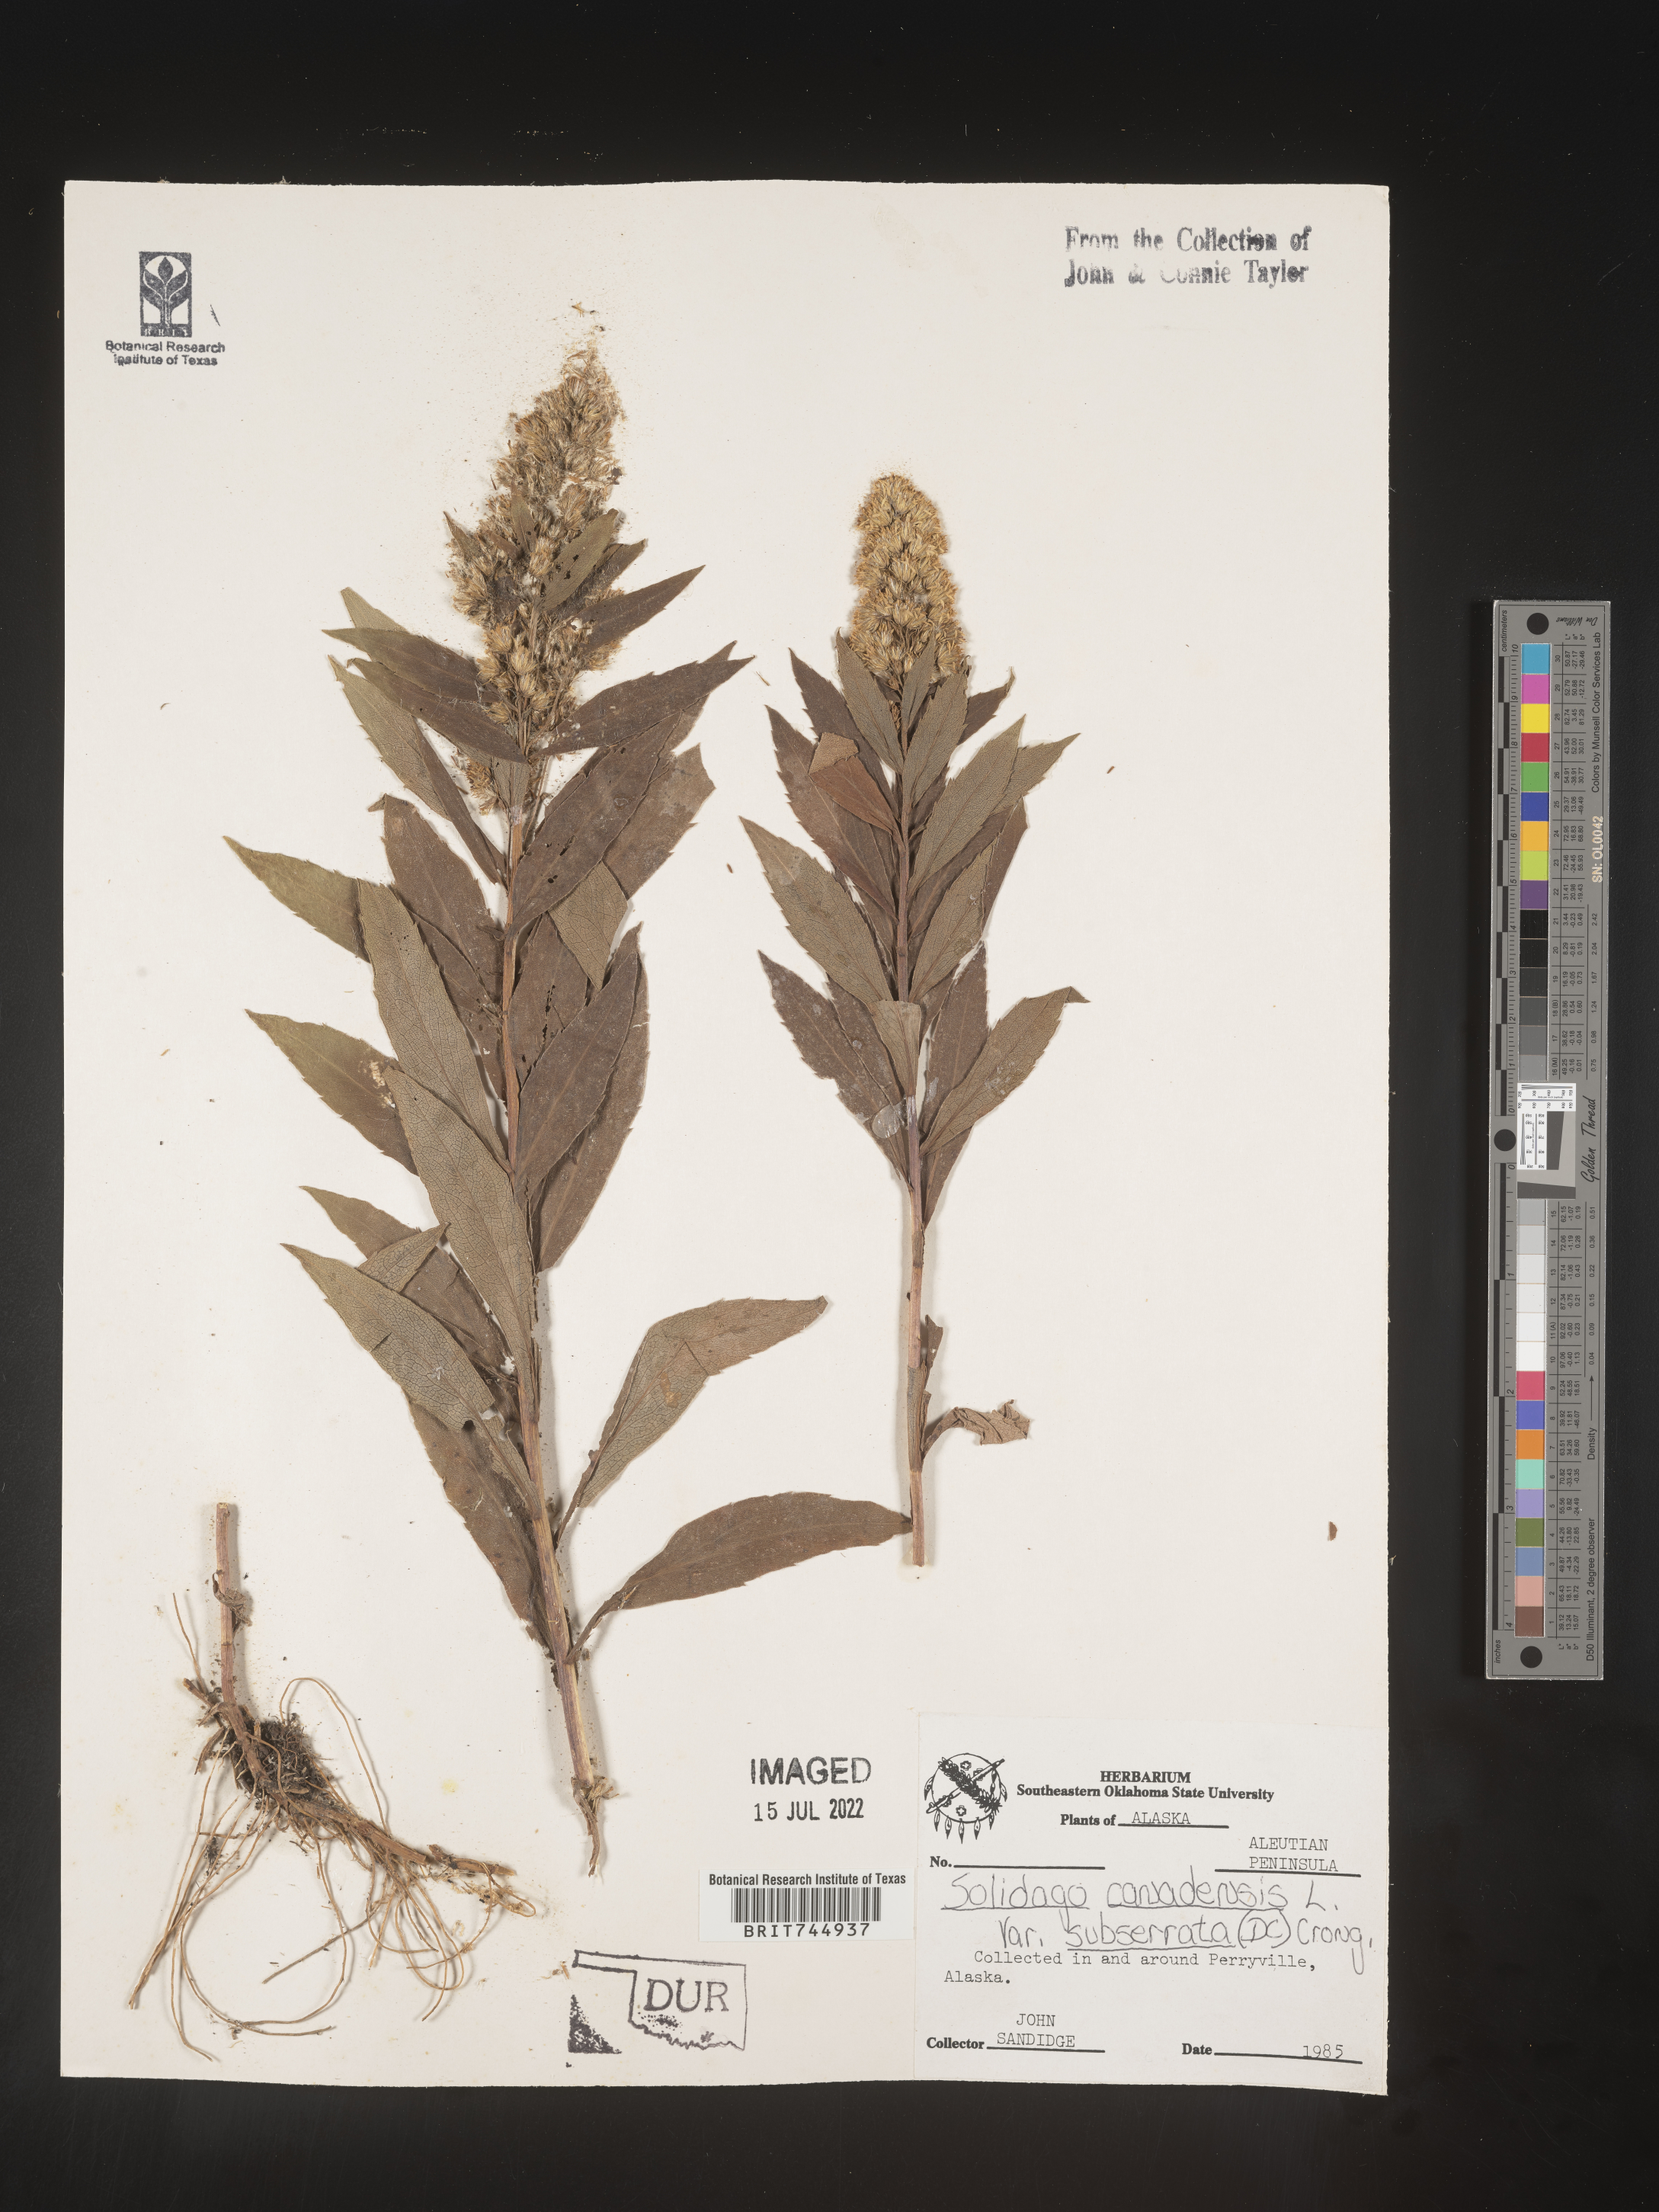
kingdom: Plantae
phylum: Tracheophyta
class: Magnoliopsida
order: Asterales
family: Asteraceae
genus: Solidago
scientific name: Solidago lepida
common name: Western canada goldenrod
